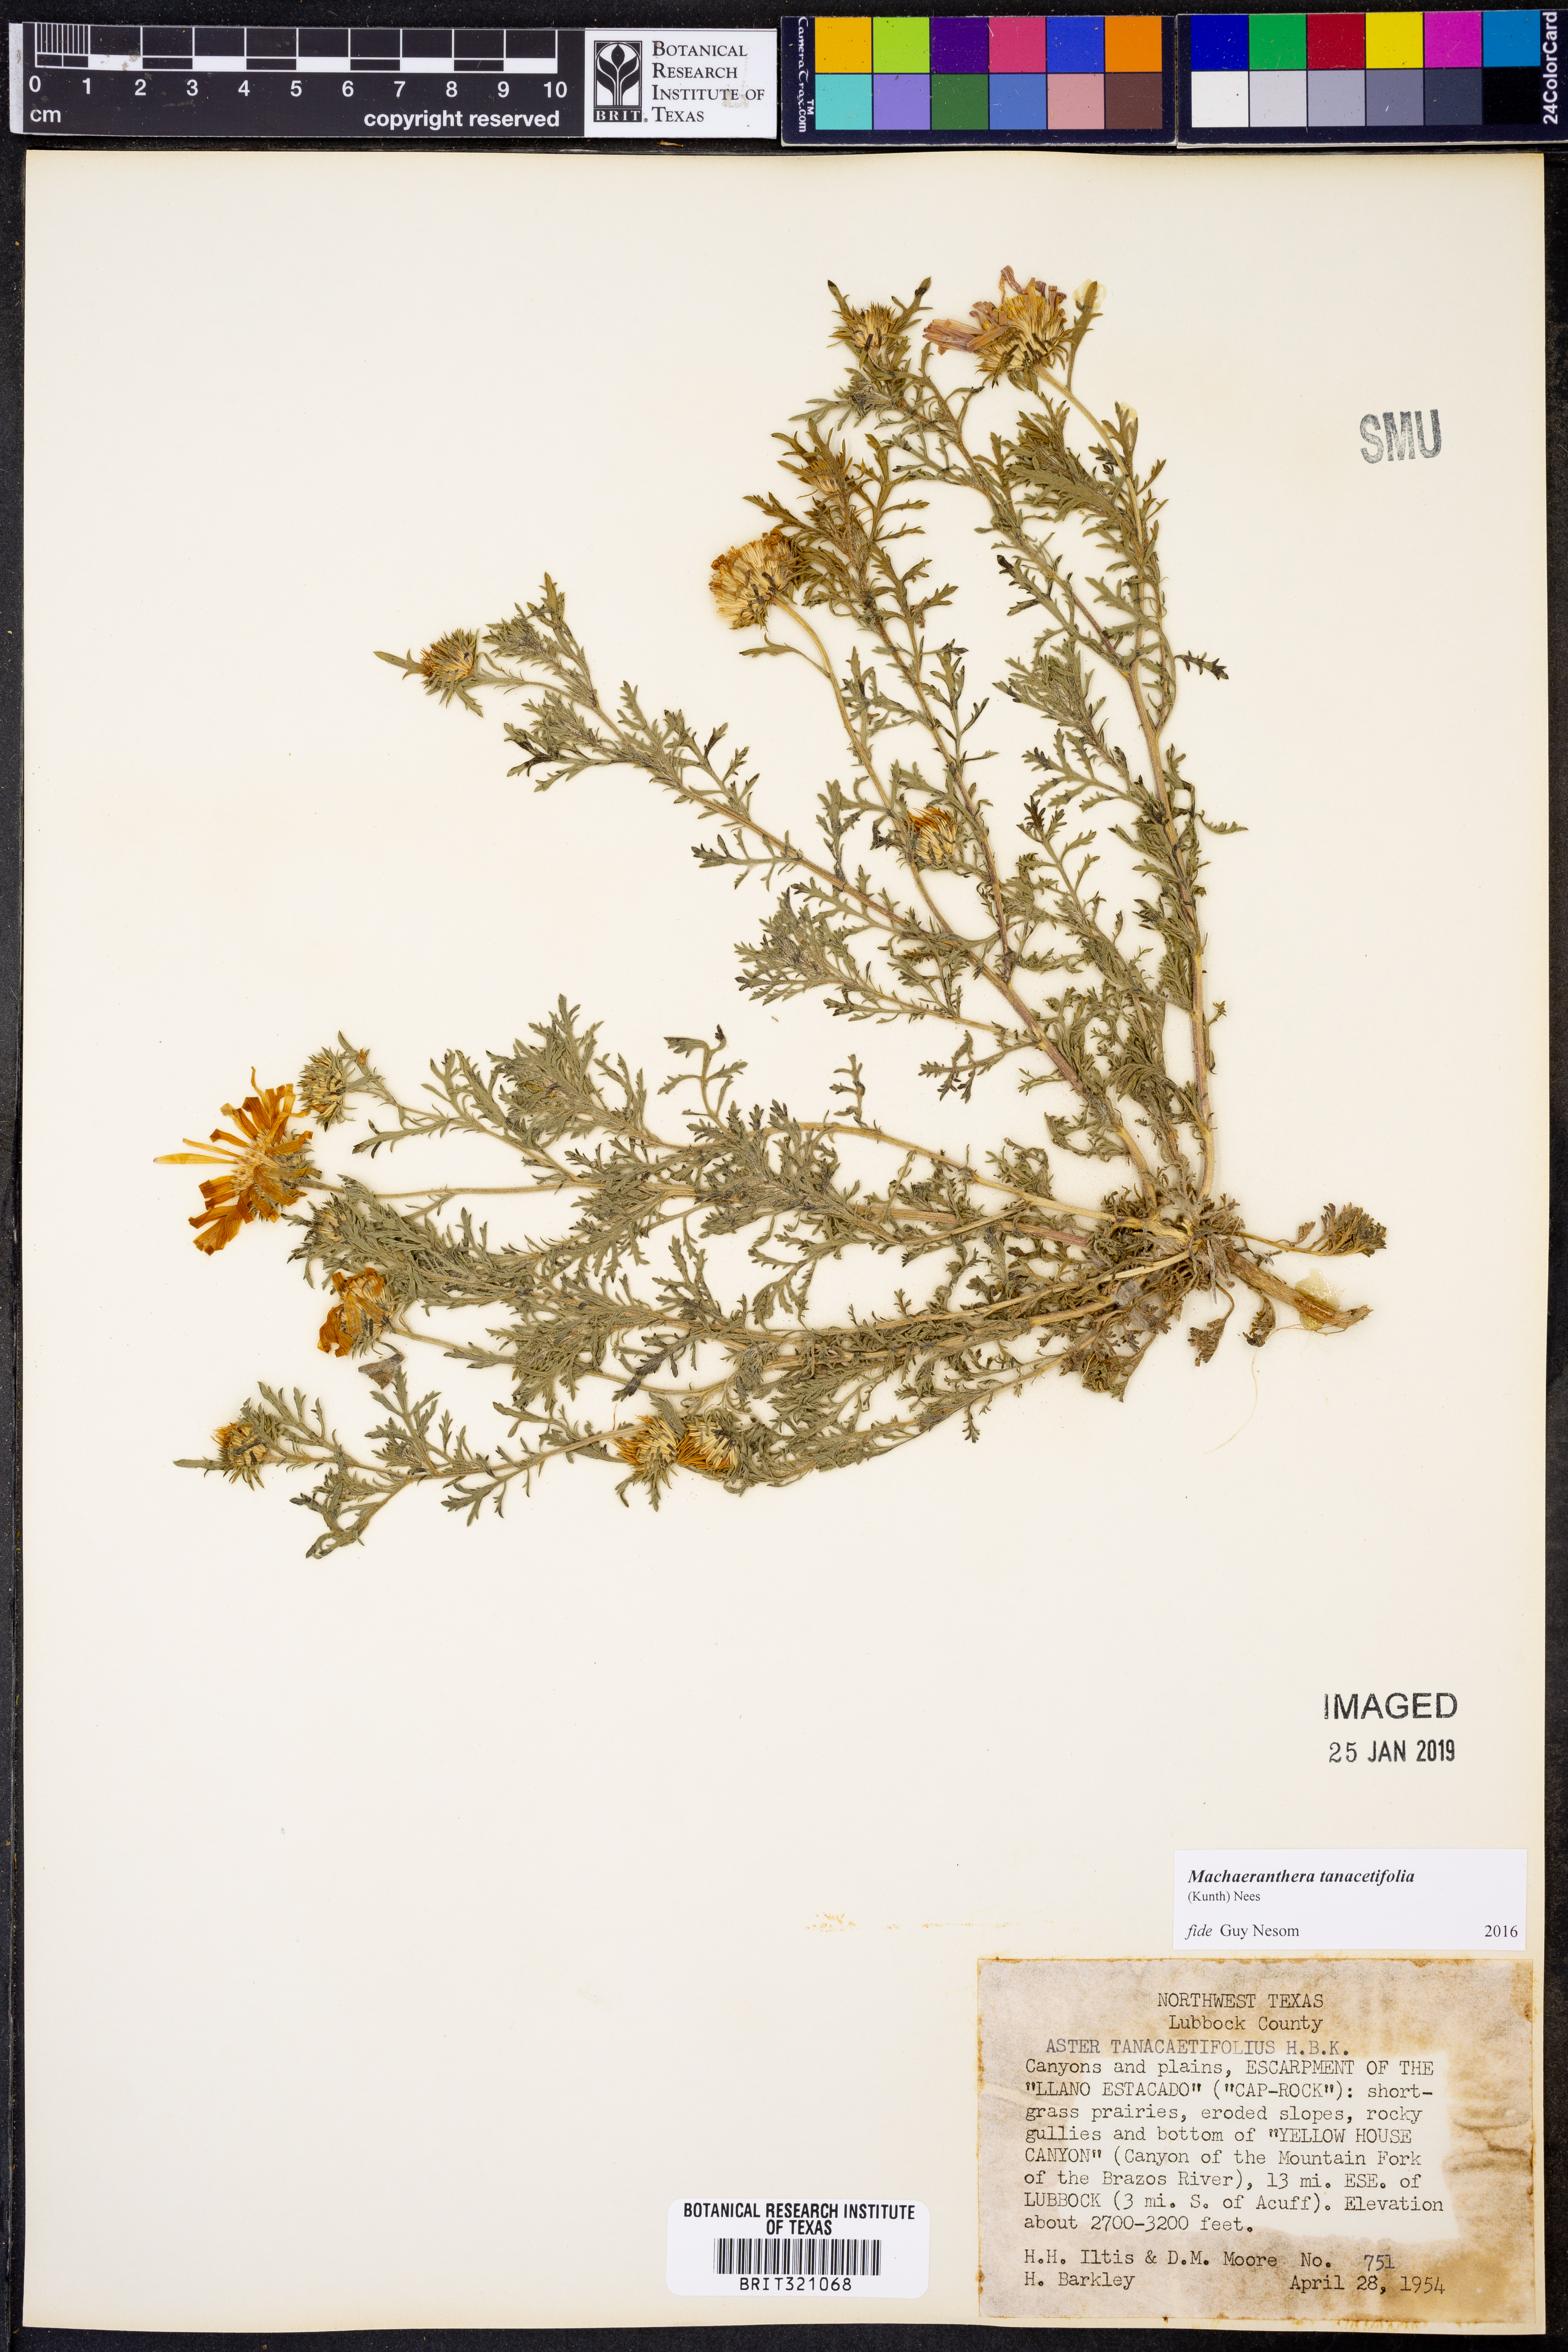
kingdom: Plantae
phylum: Tracheophyta
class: Magnoliopsida
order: Asterales
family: Asteraceae
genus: Machaeranthera
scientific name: Machaeranthera tanacetifolia
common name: Tansy-aster
